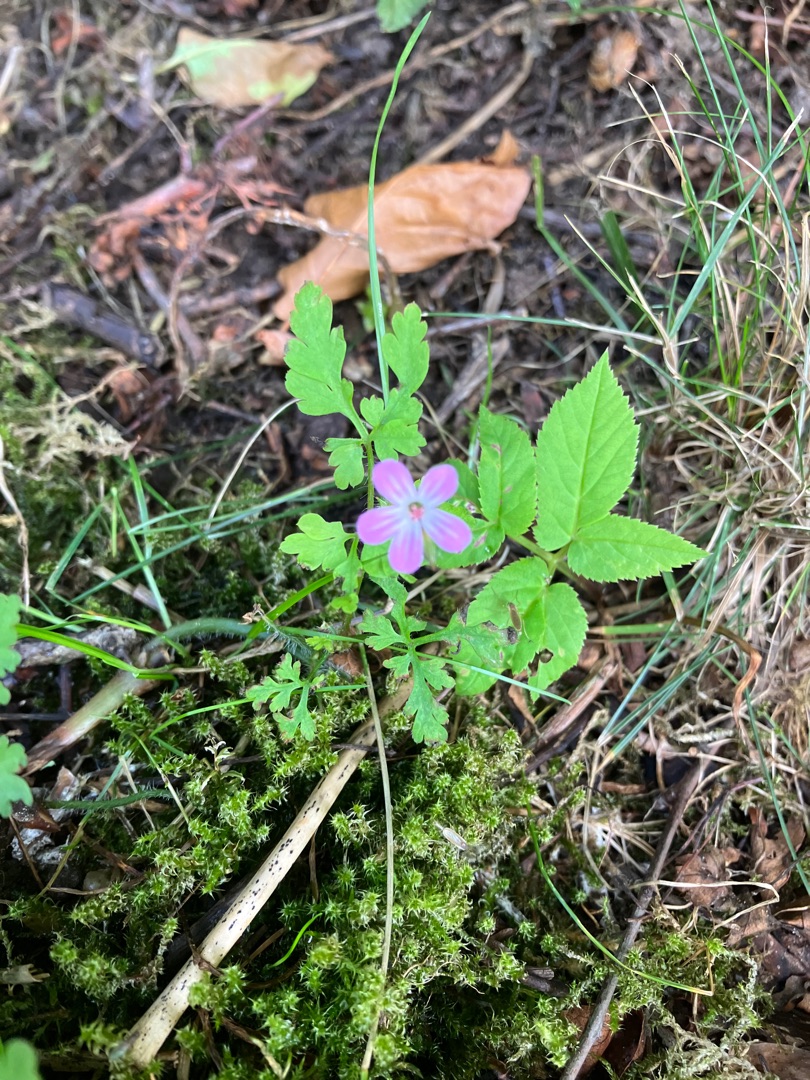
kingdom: Plantae
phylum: Tracheophyta
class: Magnoliopsida
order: Geraniales
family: Geraniaceae
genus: Geranium
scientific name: Geranium robertianum
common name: Stinkende storkenæb
